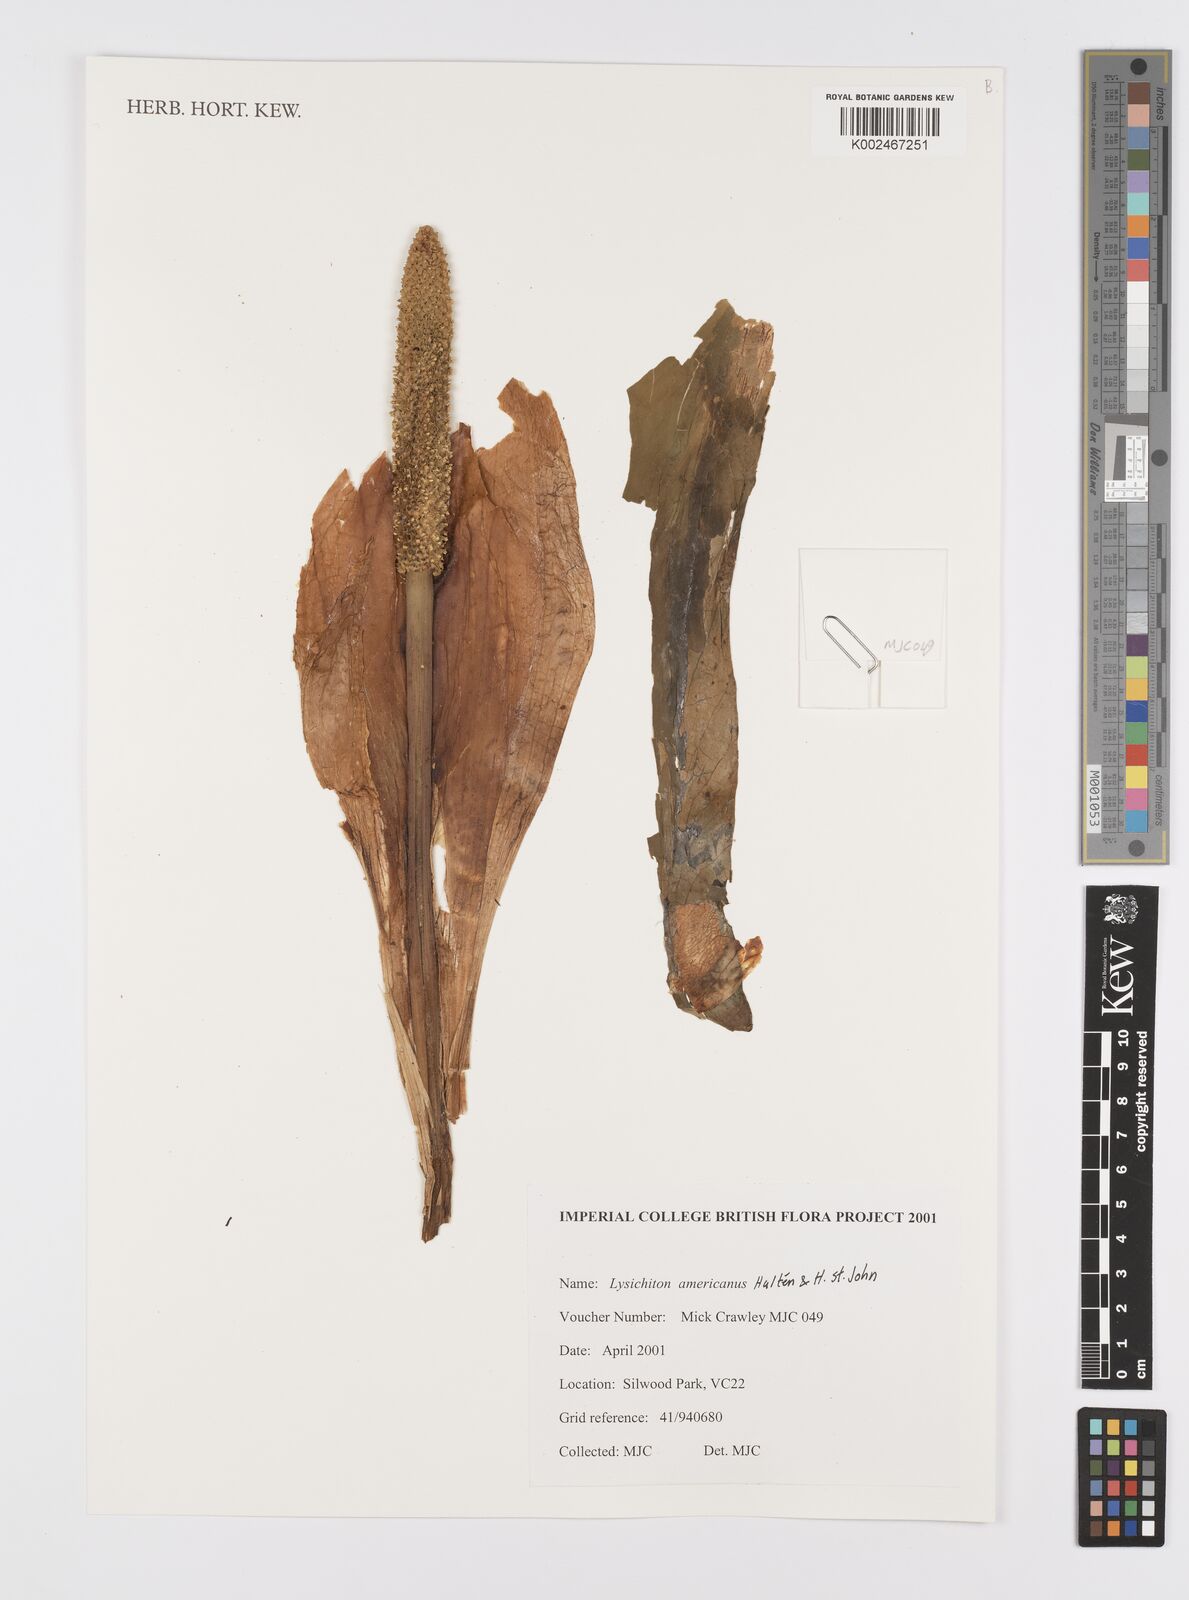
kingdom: Plantae
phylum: Tracheophyta
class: Liliopsida
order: Alismatales
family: Araceae
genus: Lysichiton
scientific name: Lysichiton americanus
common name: American skunk cabbage
